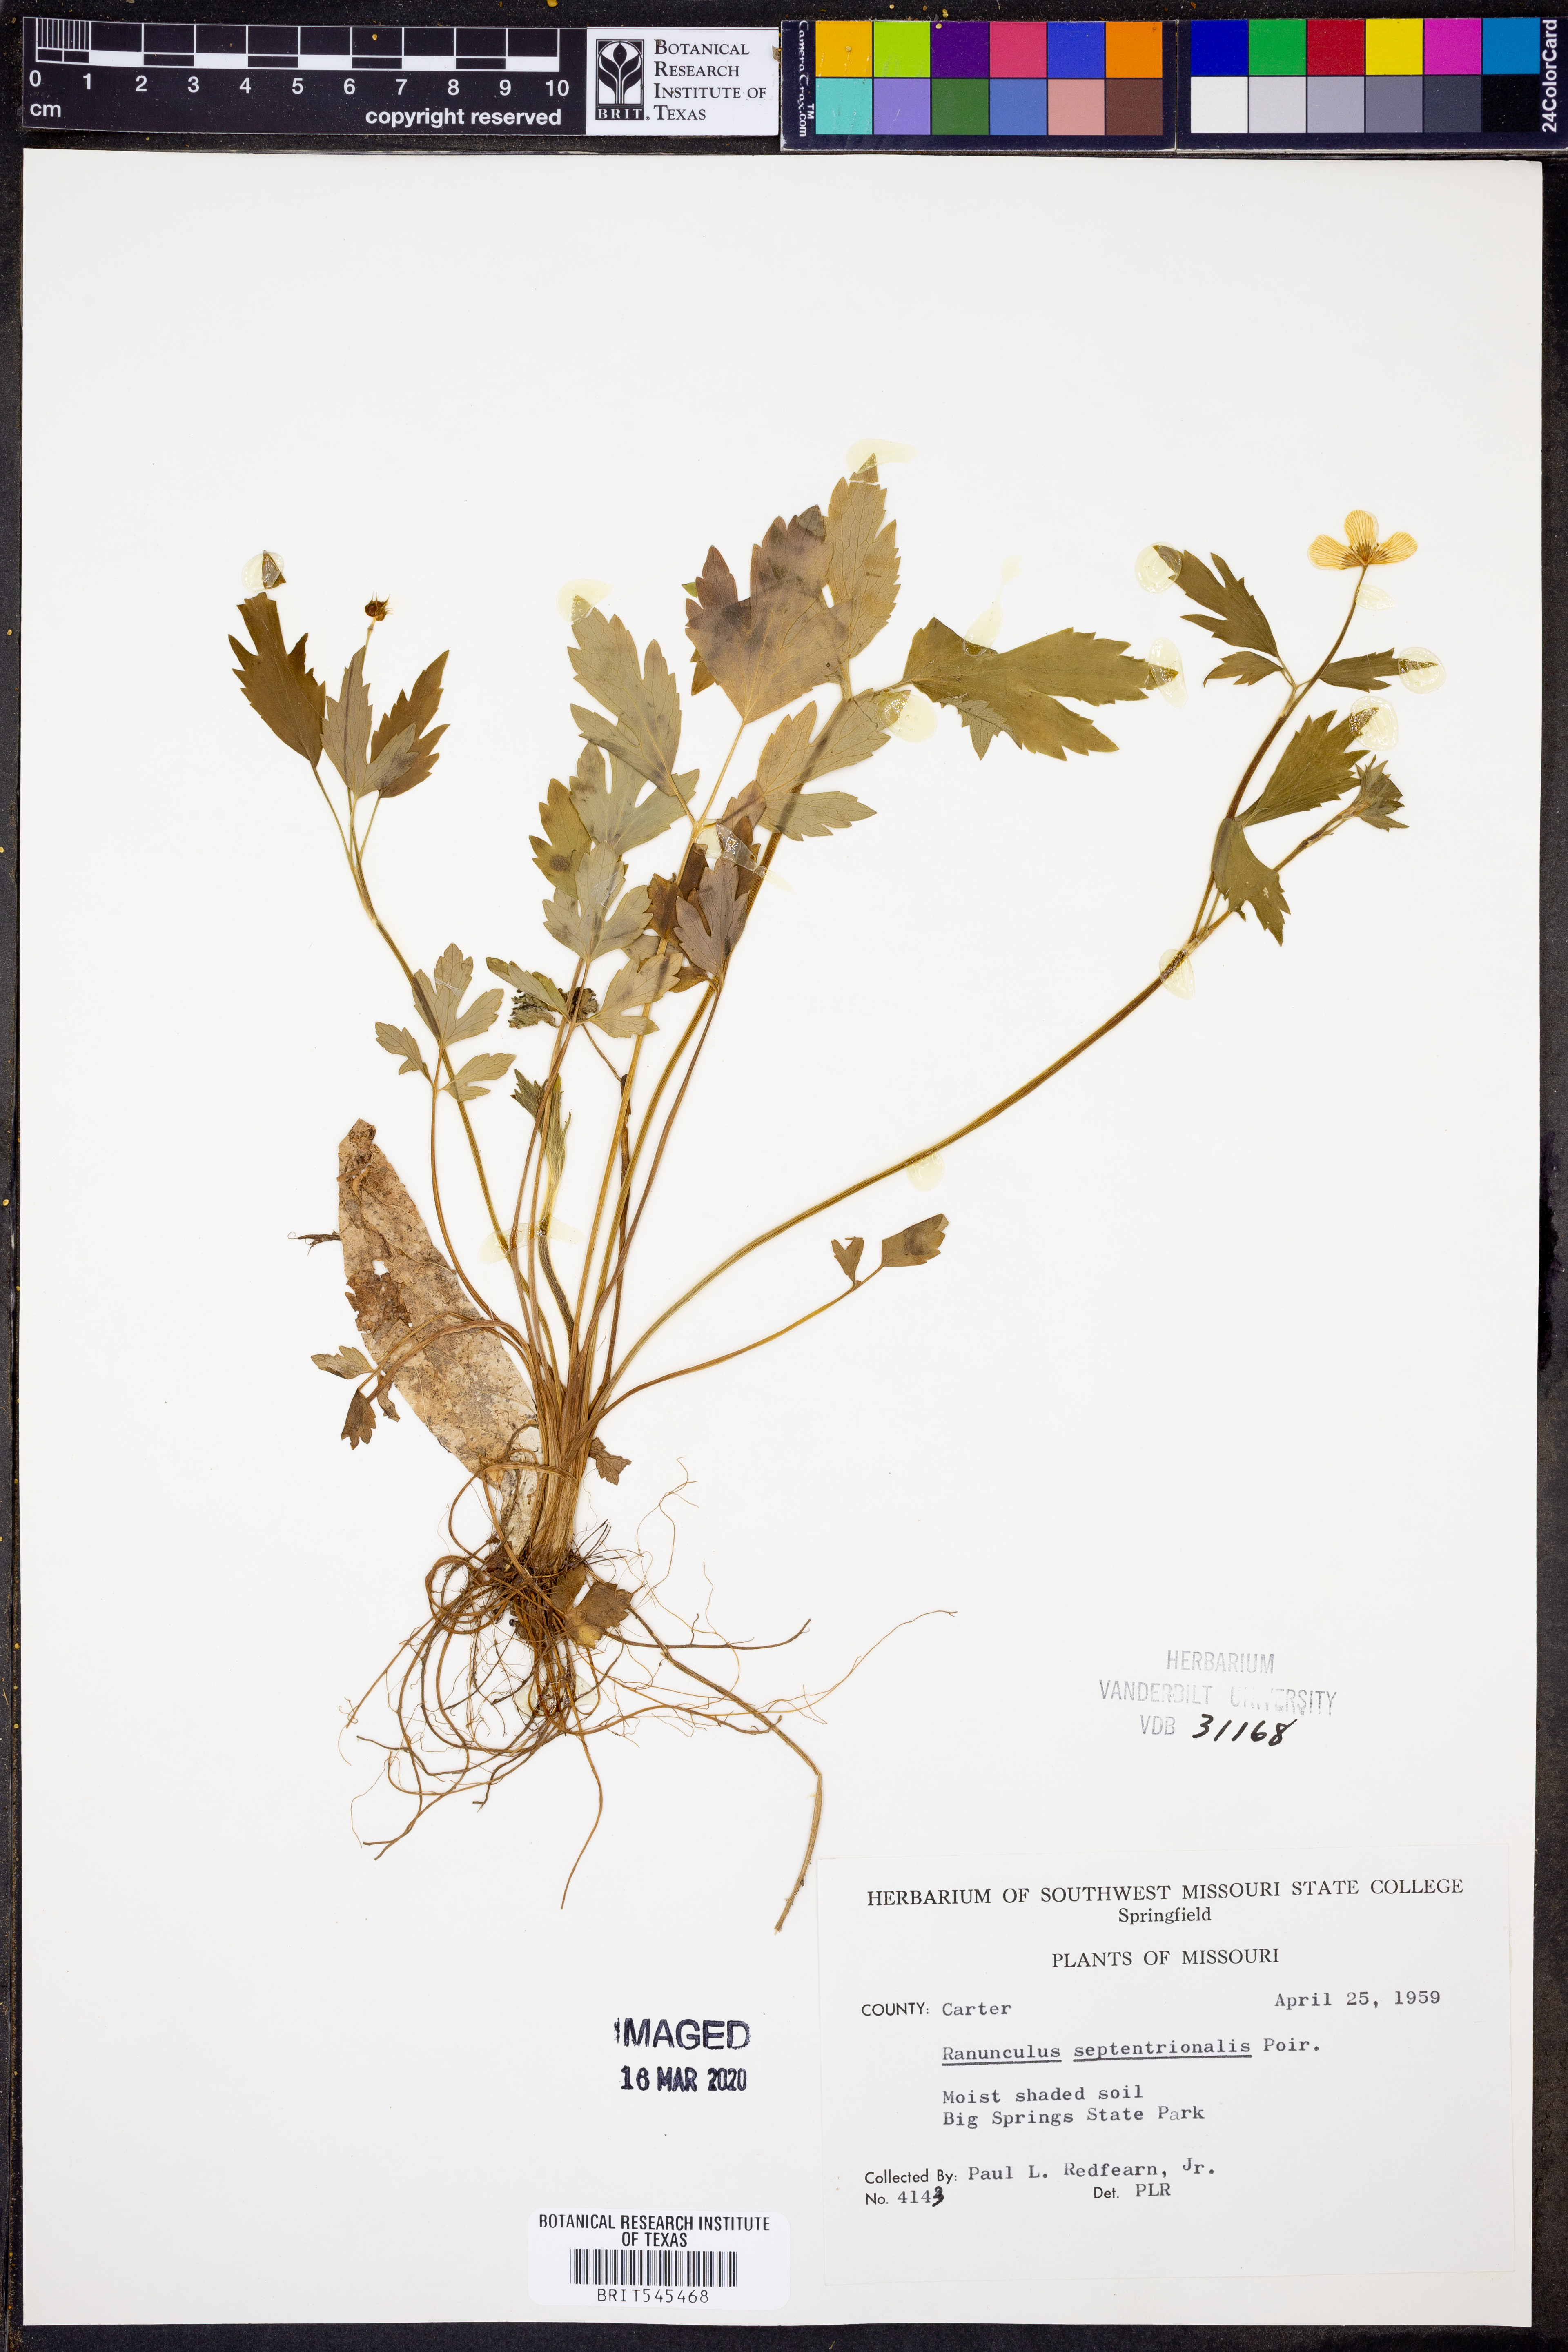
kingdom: Plantae
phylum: Tracheophyta
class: Magnoliopsida
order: Ranunculales
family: Ranunculaceae
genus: Ranunculus
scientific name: Ranunculus hispidus
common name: Bristly buttercup
